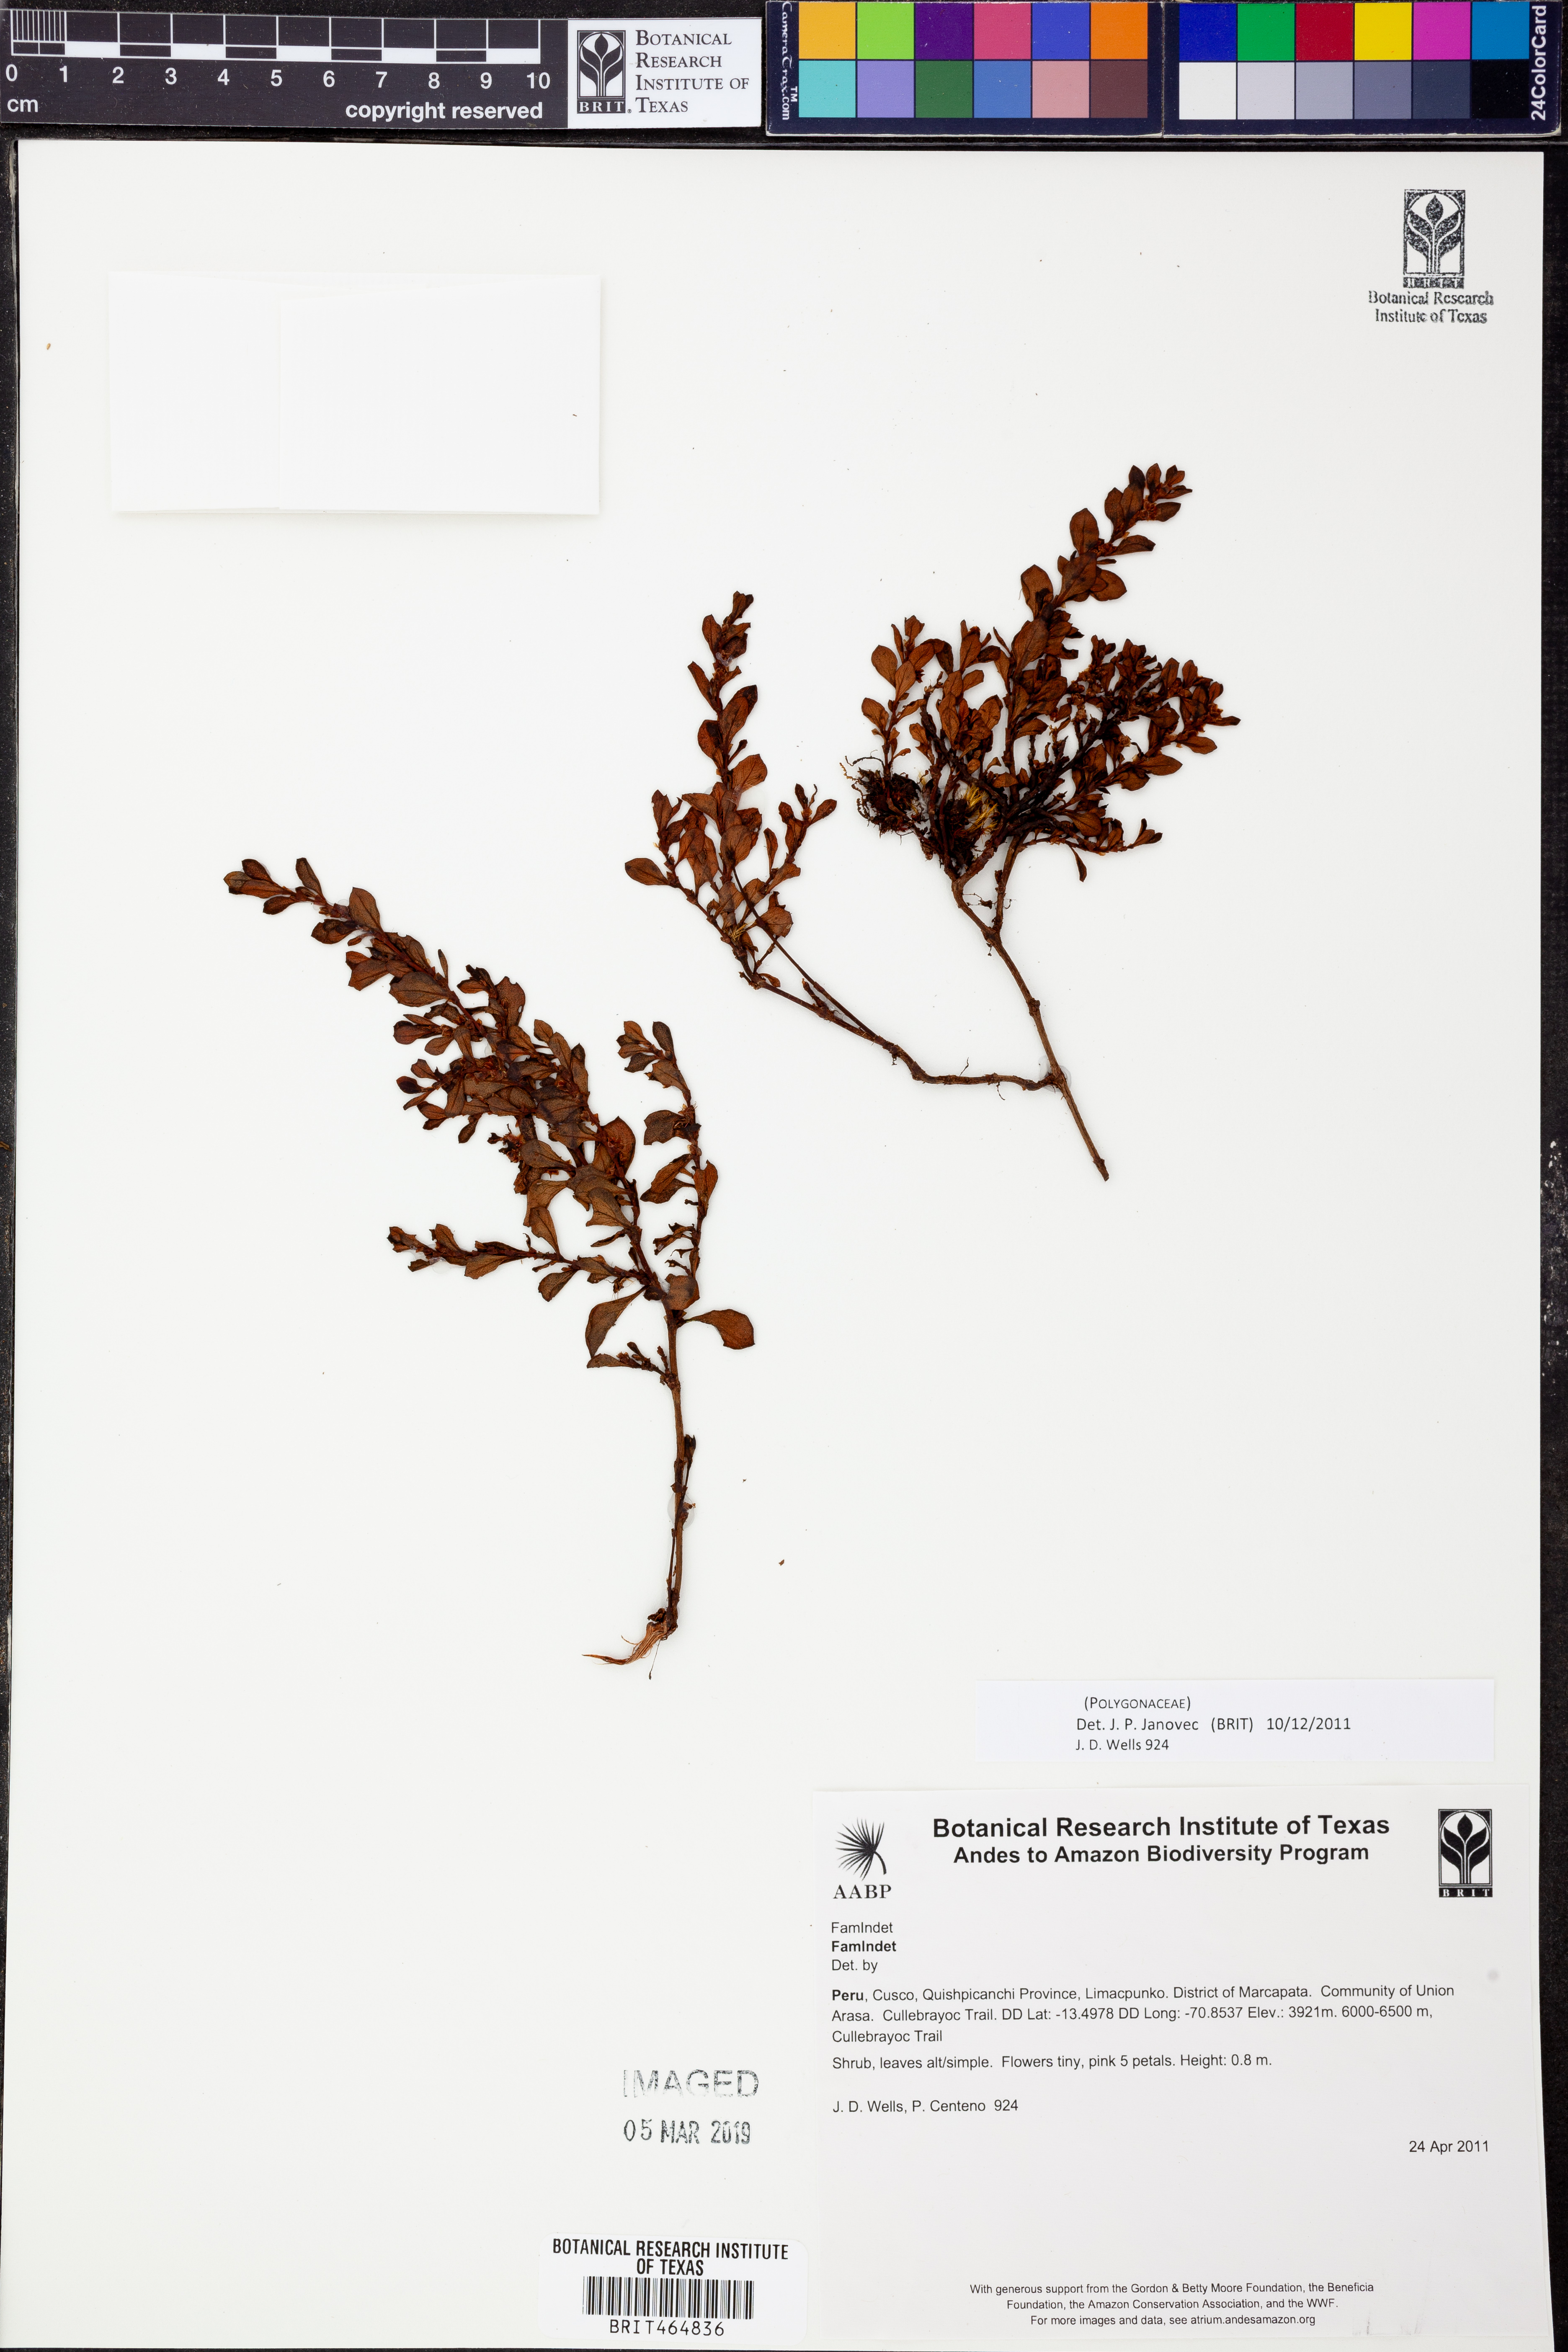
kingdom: Plantae
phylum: Tracheophyta
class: Magnoliopsida
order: Caryophyllales
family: Polygonaceae
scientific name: Polygonaceae
